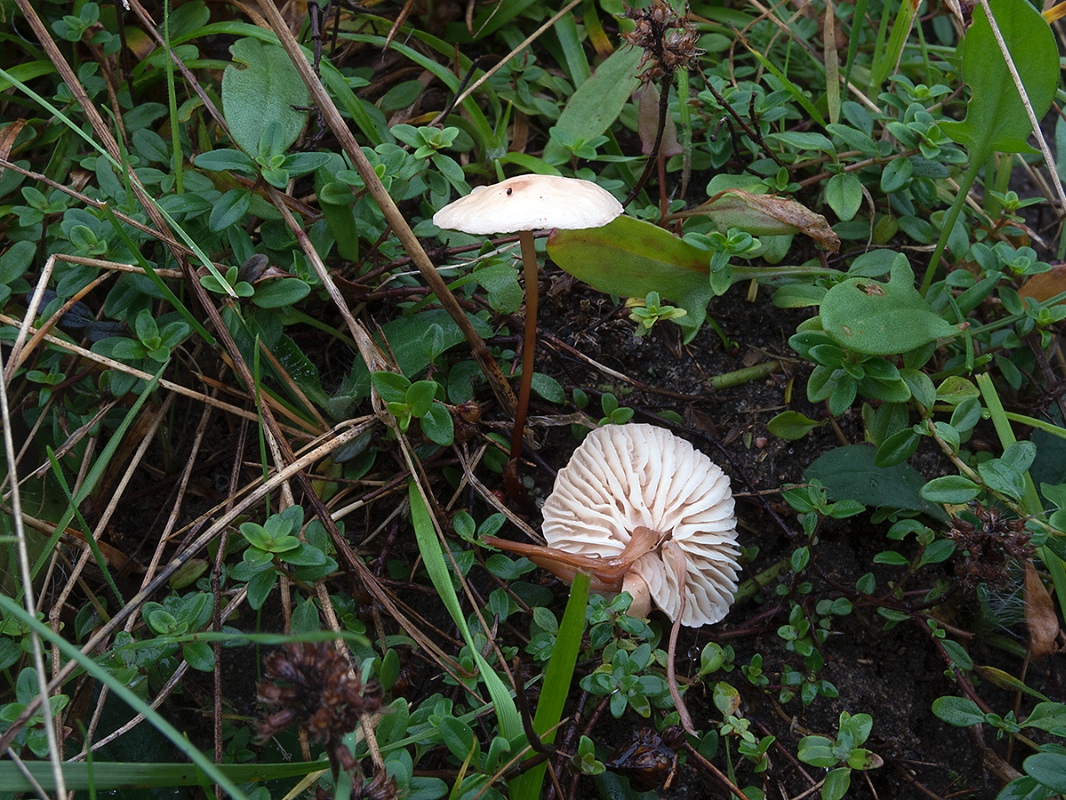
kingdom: Fungi
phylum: Basidiomycota
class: Agaricomycetes
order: Agaricales
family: Omphalotaceae
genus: Mycetinis
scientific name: Mycetinis scorodonius
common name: lille løghat
